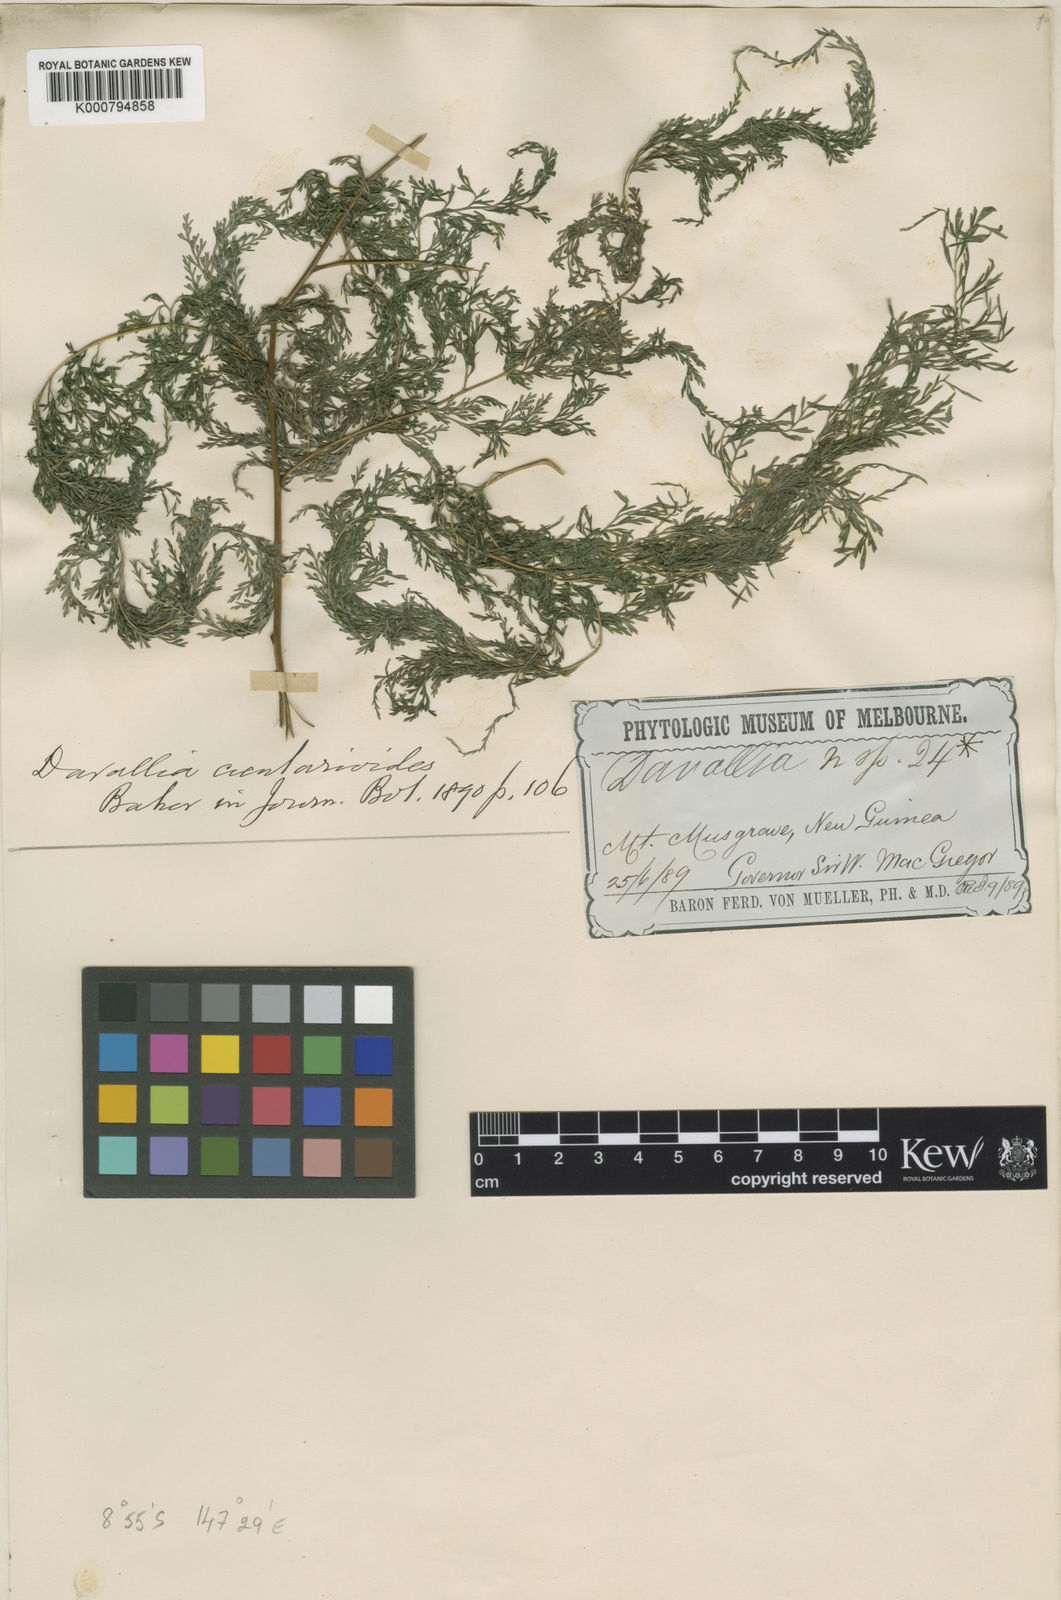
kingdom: Plantae
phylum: Tracheophyta
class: Polypodiopsida
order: Polypodiales
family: Saccolomataceae
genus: Orthiopteris
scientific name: Orthiopteris cicutarioides
